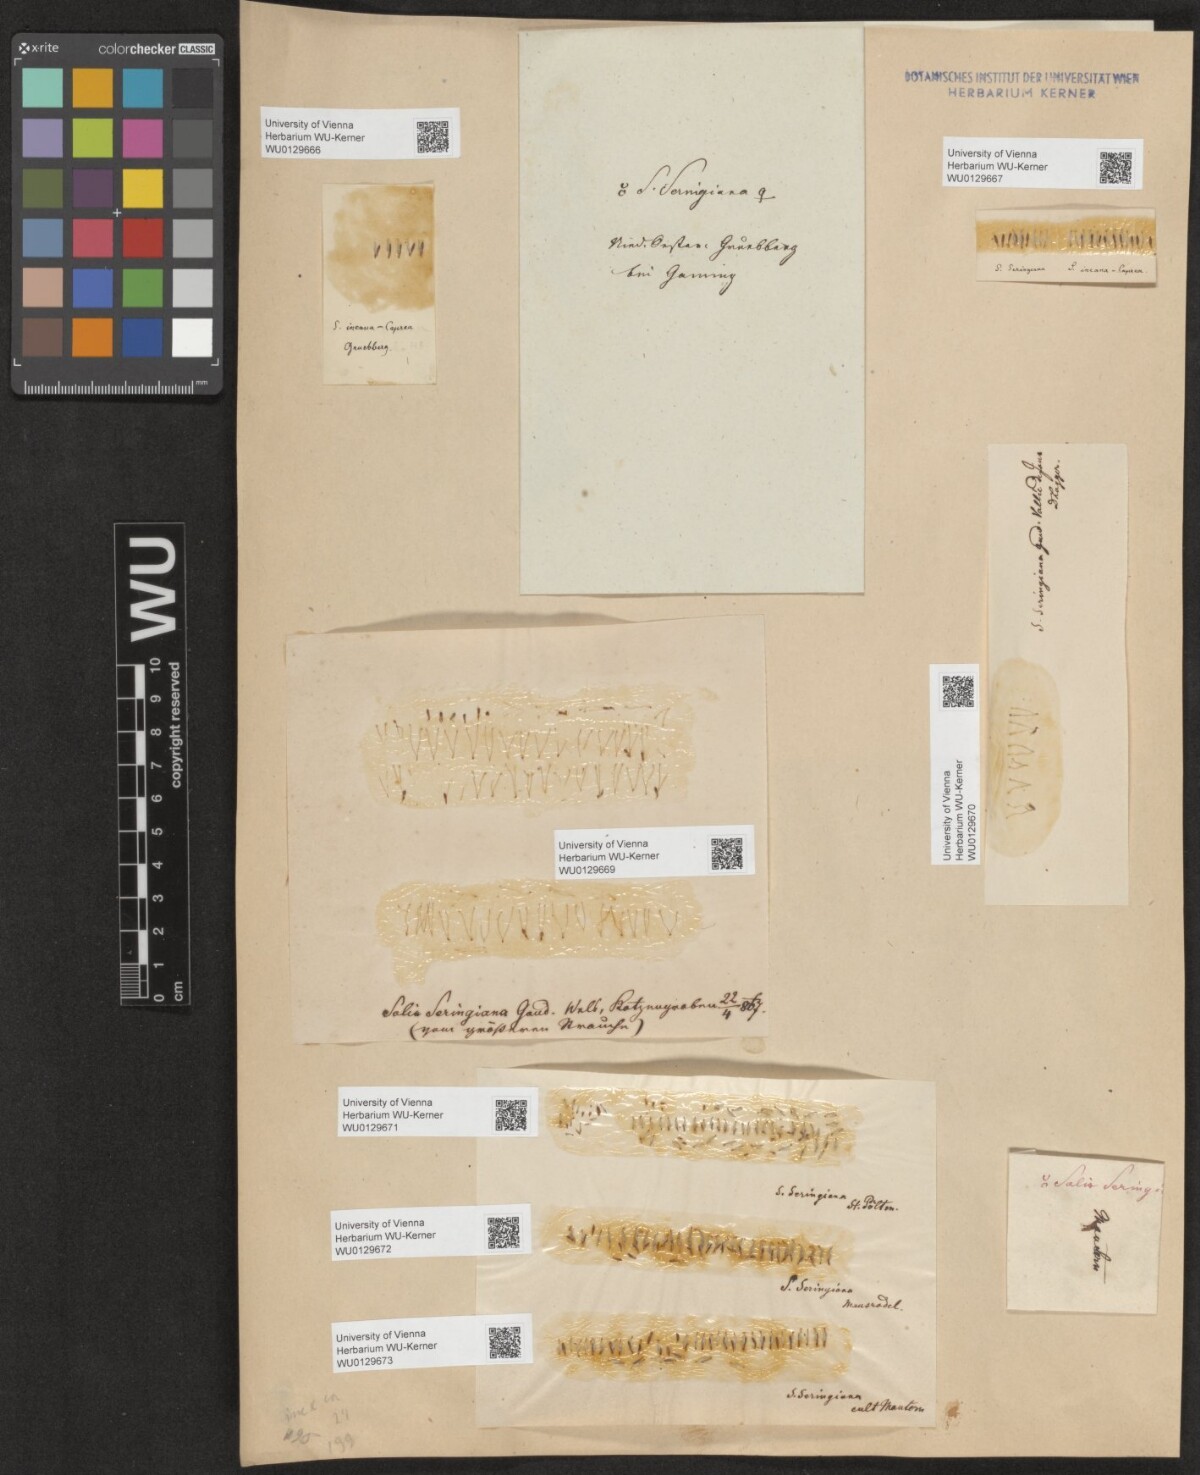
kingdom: Plantae
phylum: Tracheophyta
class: Magnoliopsida
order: Malpighiales
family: Salicaceae
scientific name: Salicaceae
